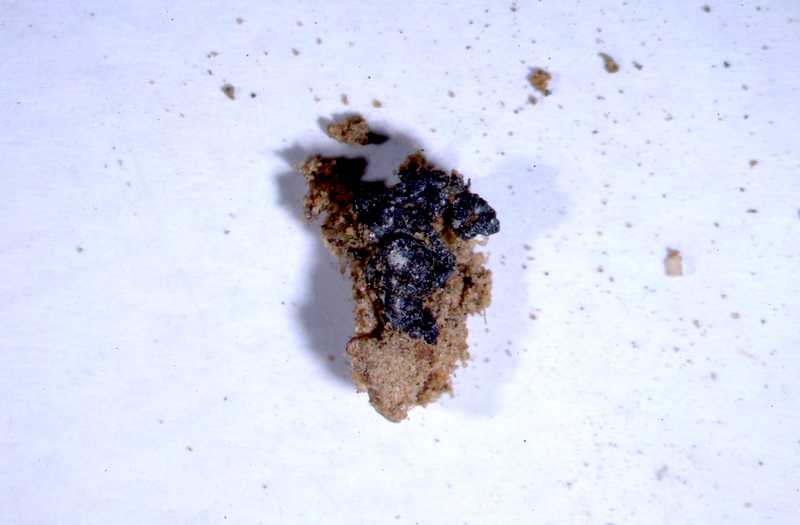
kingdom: Fungi
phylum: Ascomycota
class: Lecanoromycetes
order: Peltigerales
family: Collemataceae
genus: Collema
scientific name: Collema texanum
